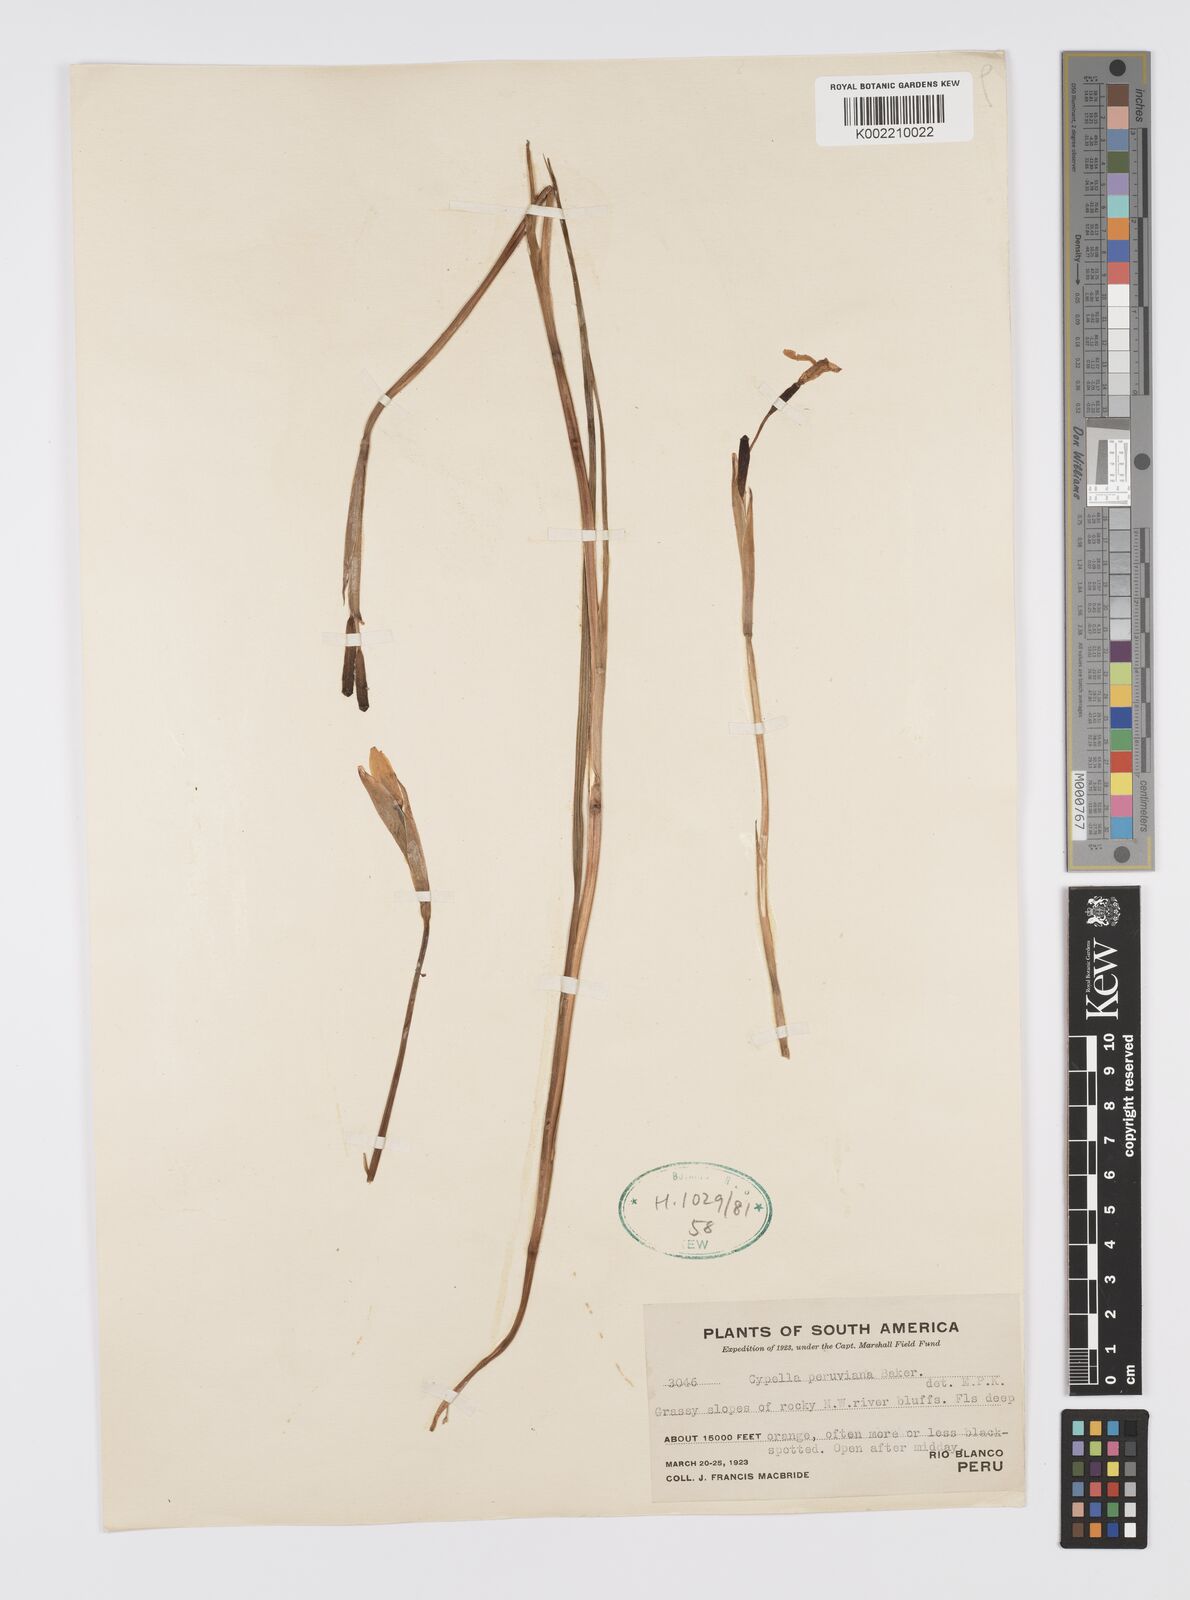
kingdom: Plantae
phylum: Tracheophyta
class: Liliopsida
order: Asparagales
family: Iridaceae
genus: Hesperoxiphion
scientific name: Hesperoxiphion peruvianum
